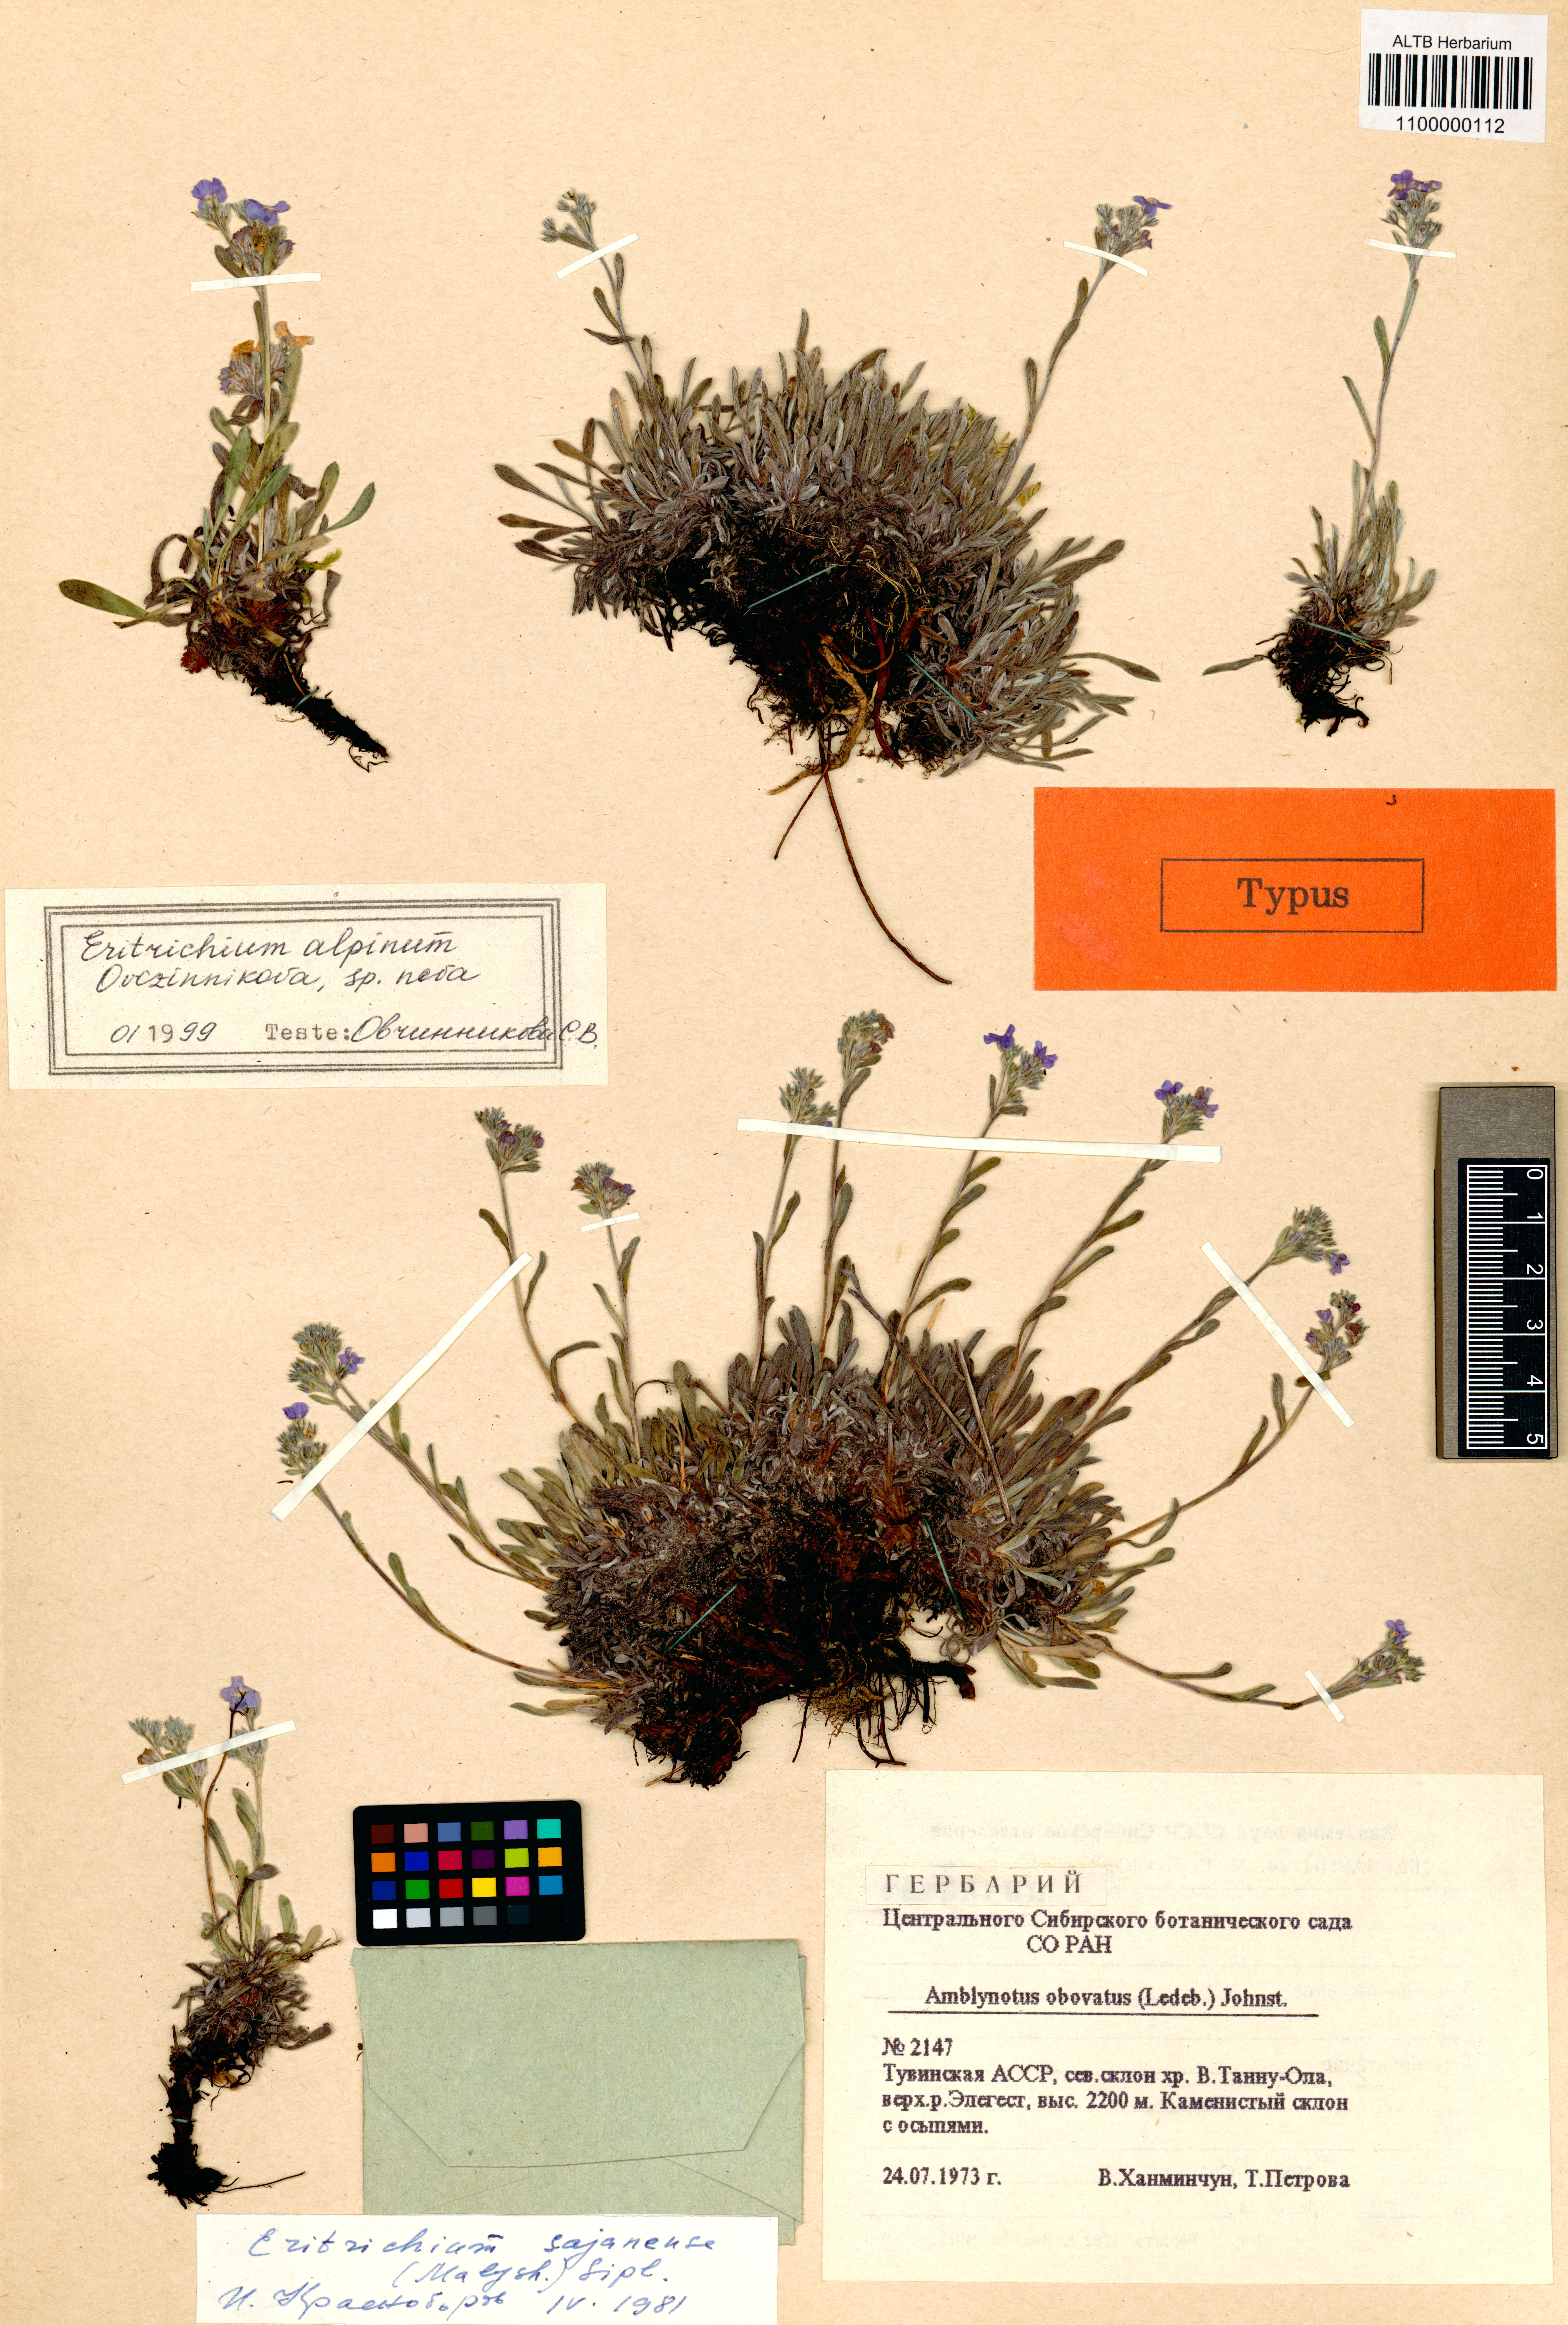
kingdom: Plantae
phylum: Tracheophyta
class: Magnoliopsida
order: Boraginales
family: Boraginaceae
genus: Eritrichium
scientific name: Eritrichium alpinum
